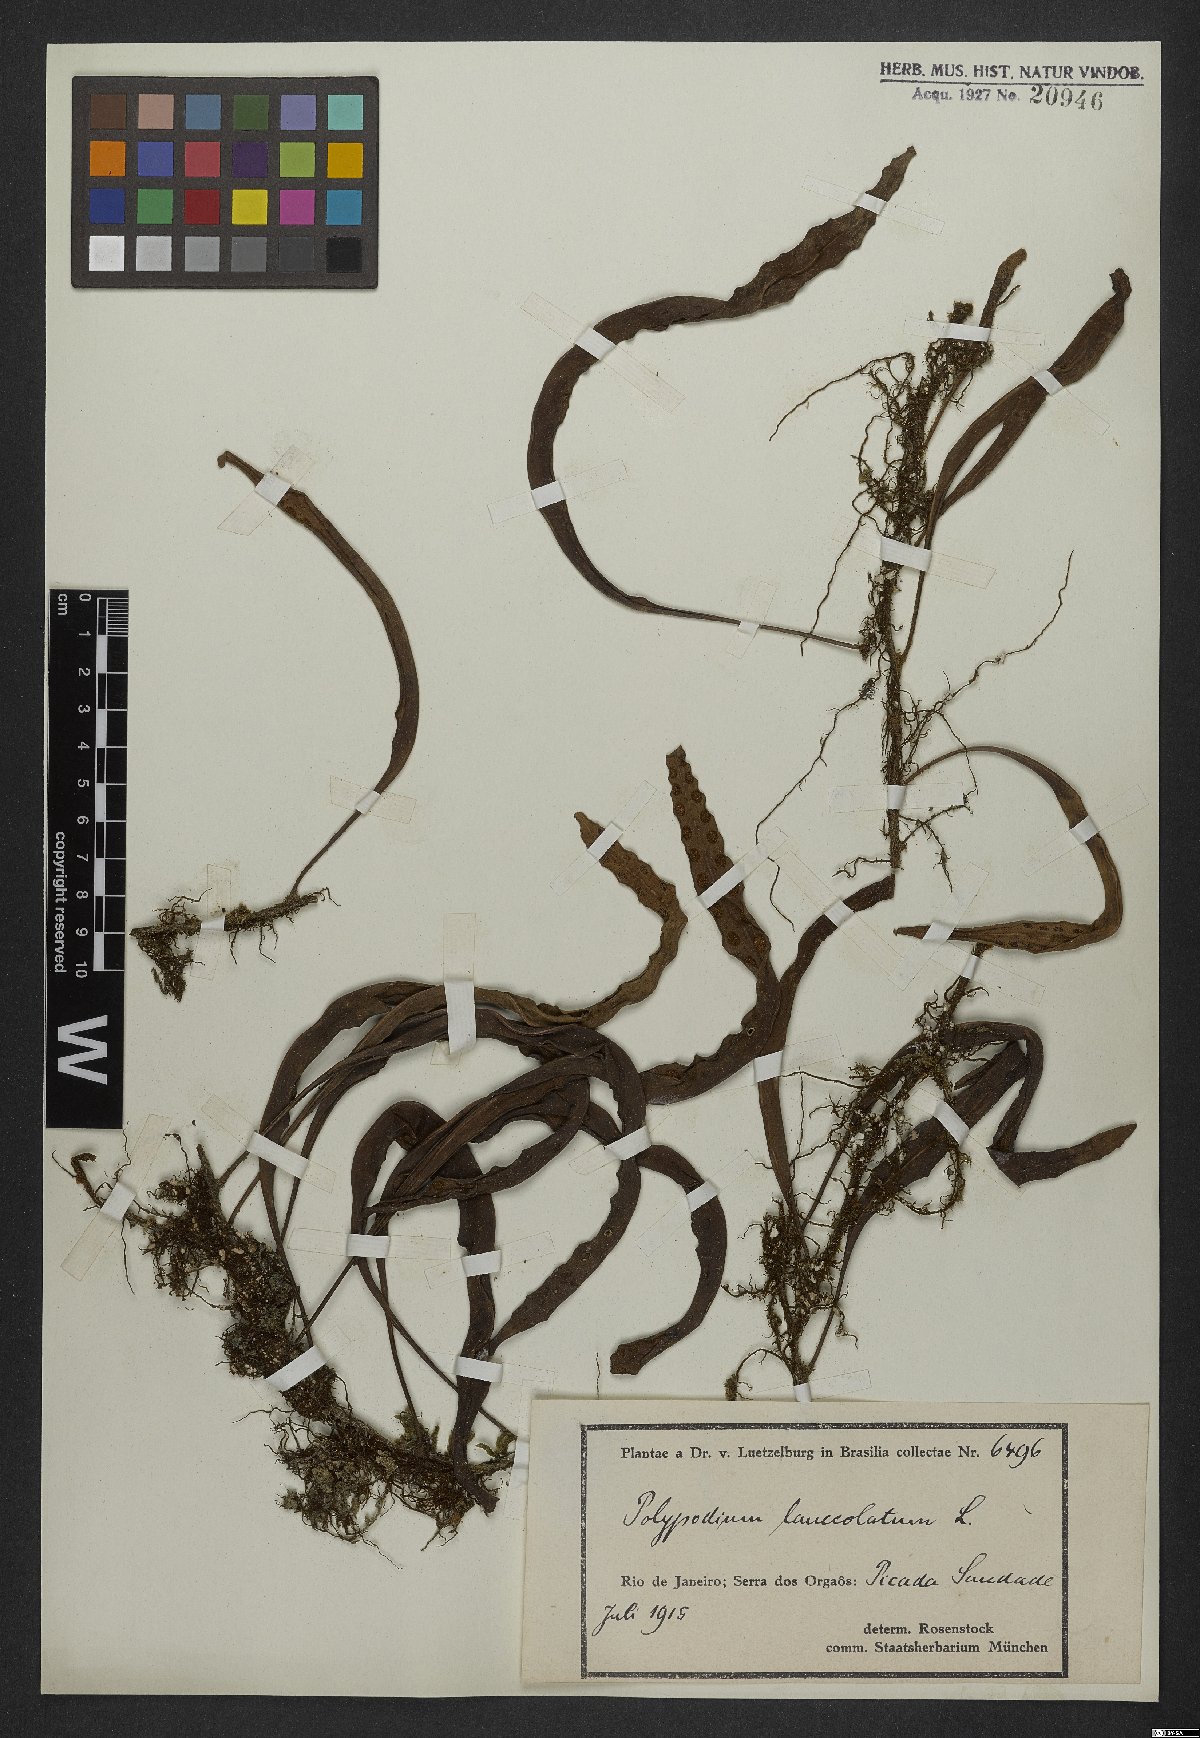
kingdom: Plantae
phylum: Tracheophyta
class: Polypodiopsida
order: Polypodiales
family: Polypodiaceae
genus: Pleopeltis
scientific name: Pleopeltis macrocarpa
